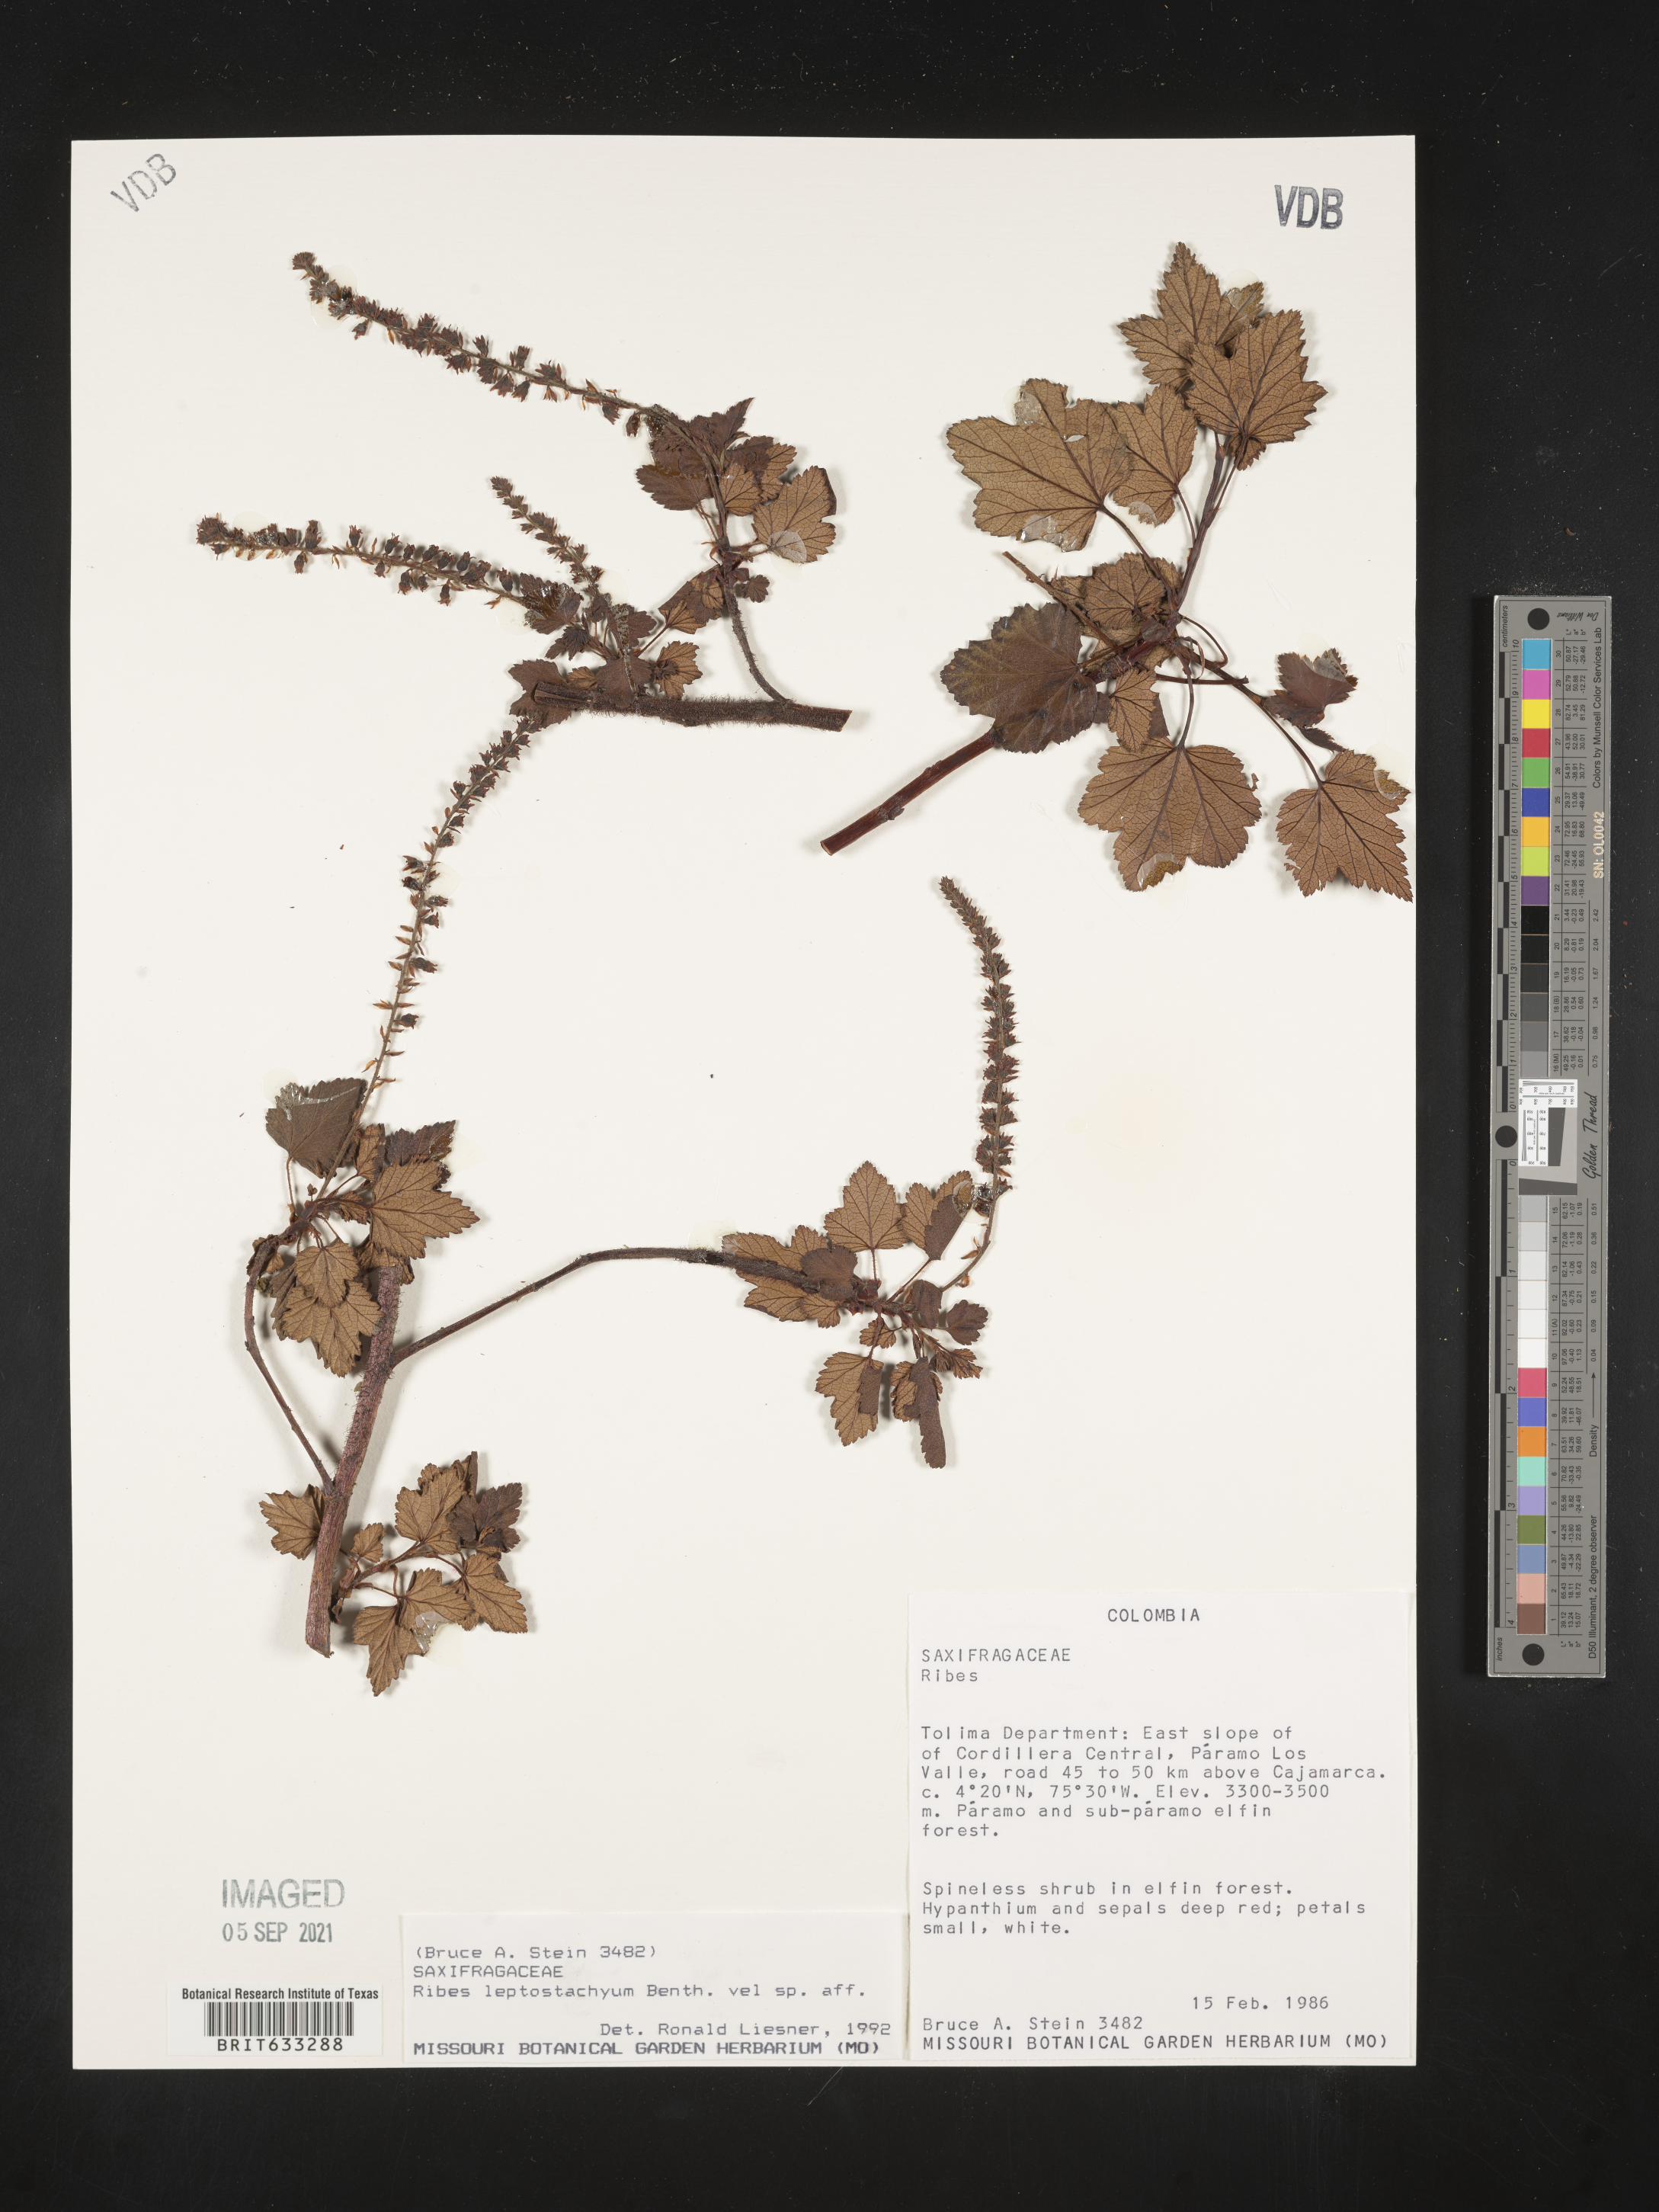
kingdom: Plantae
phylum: Tracheophyta
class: Magnoliopsida
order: Saxifragales
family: Grossulariaceae
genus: Ribes
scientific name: Ribes
